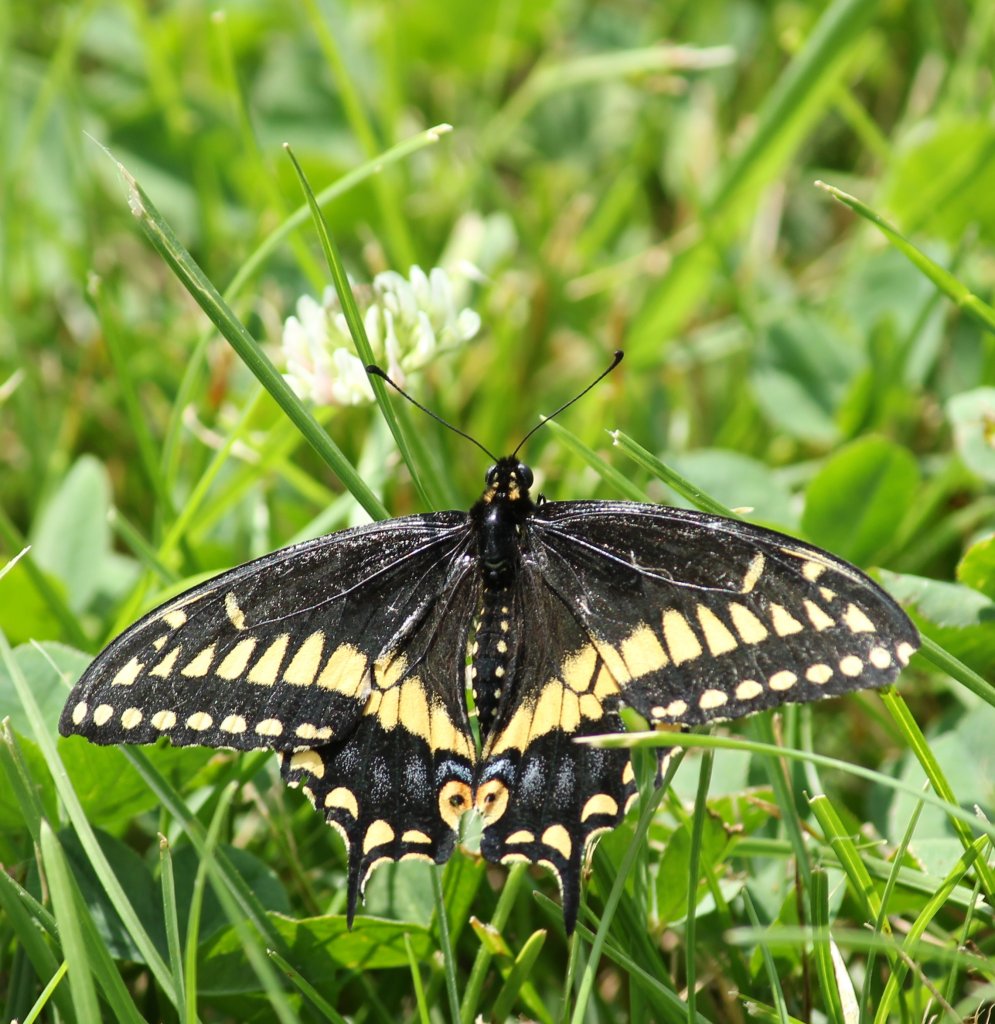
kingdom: Animalia
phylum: Arthropoda
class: Insecta
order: Lepidoptera
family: Papilionidae
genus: Papilio
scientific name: Papilio polyxenes
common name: Black Swallowtail
